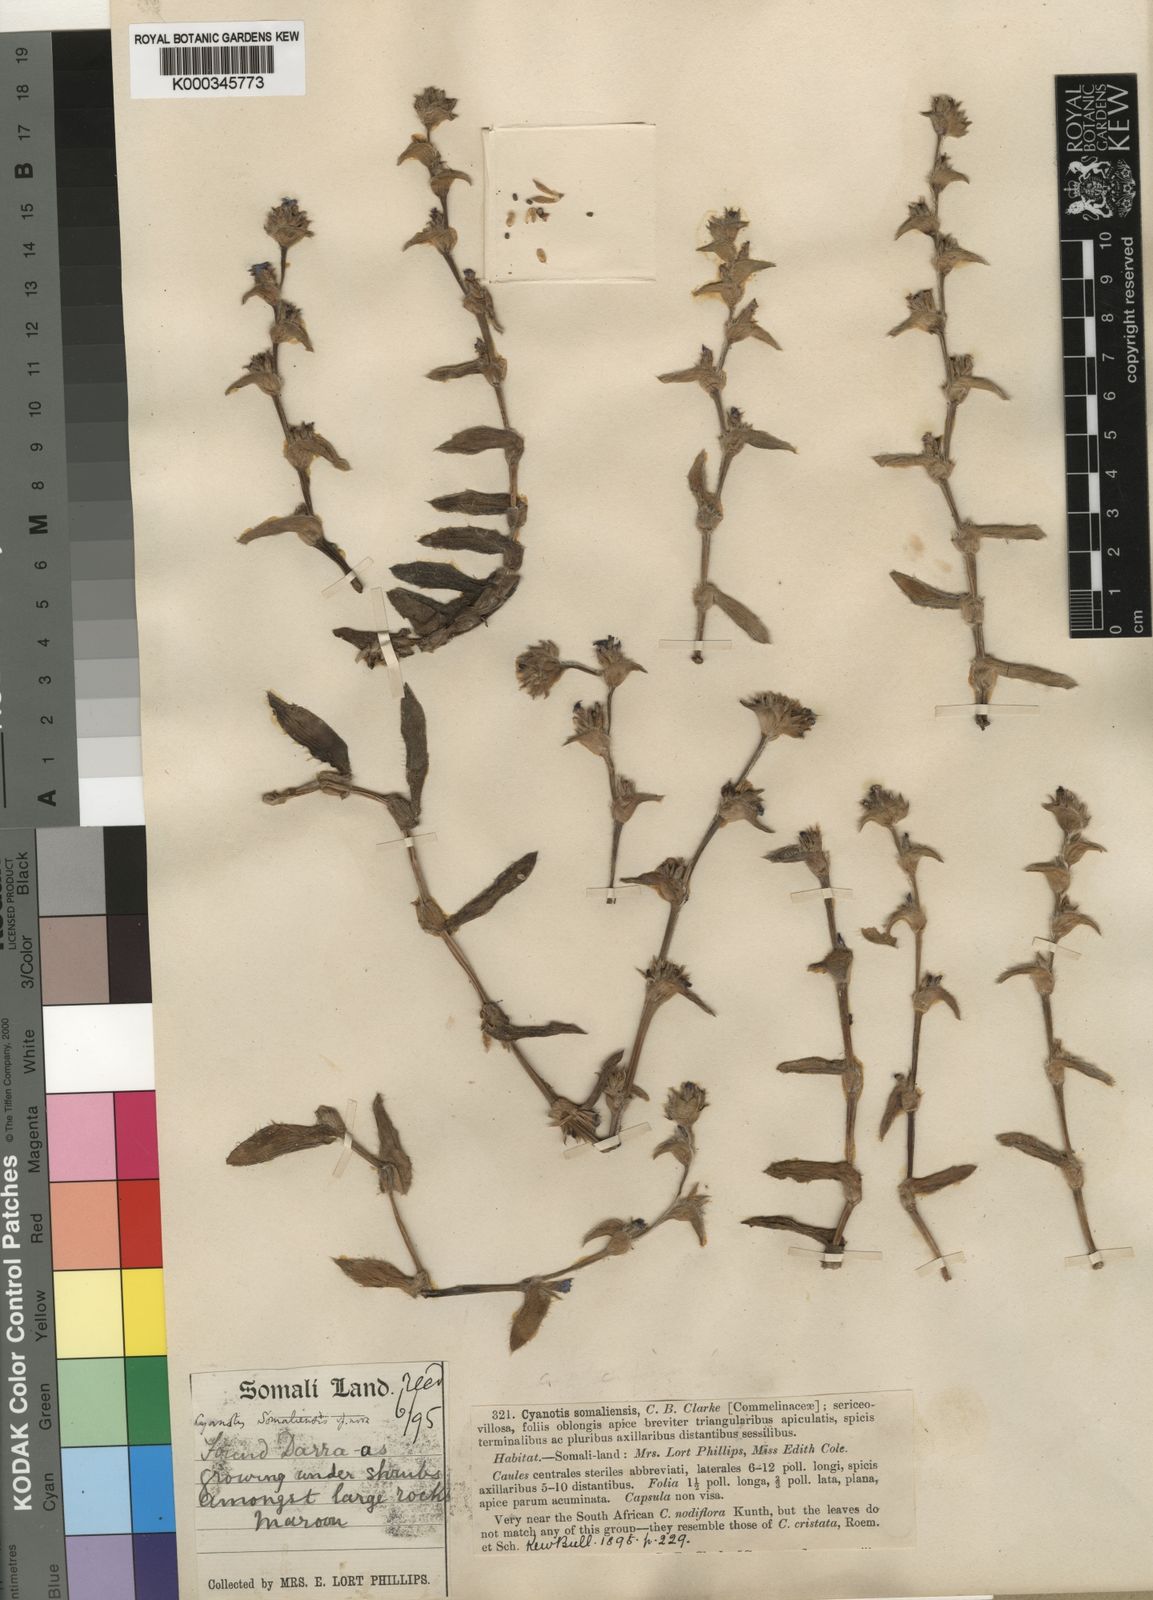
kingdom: Plantae
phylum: Tracheophyta
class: Liliopsida
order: Commelinales
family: Commelinaceae
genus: Cyanotis
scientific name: Cyanotis somaliensis
